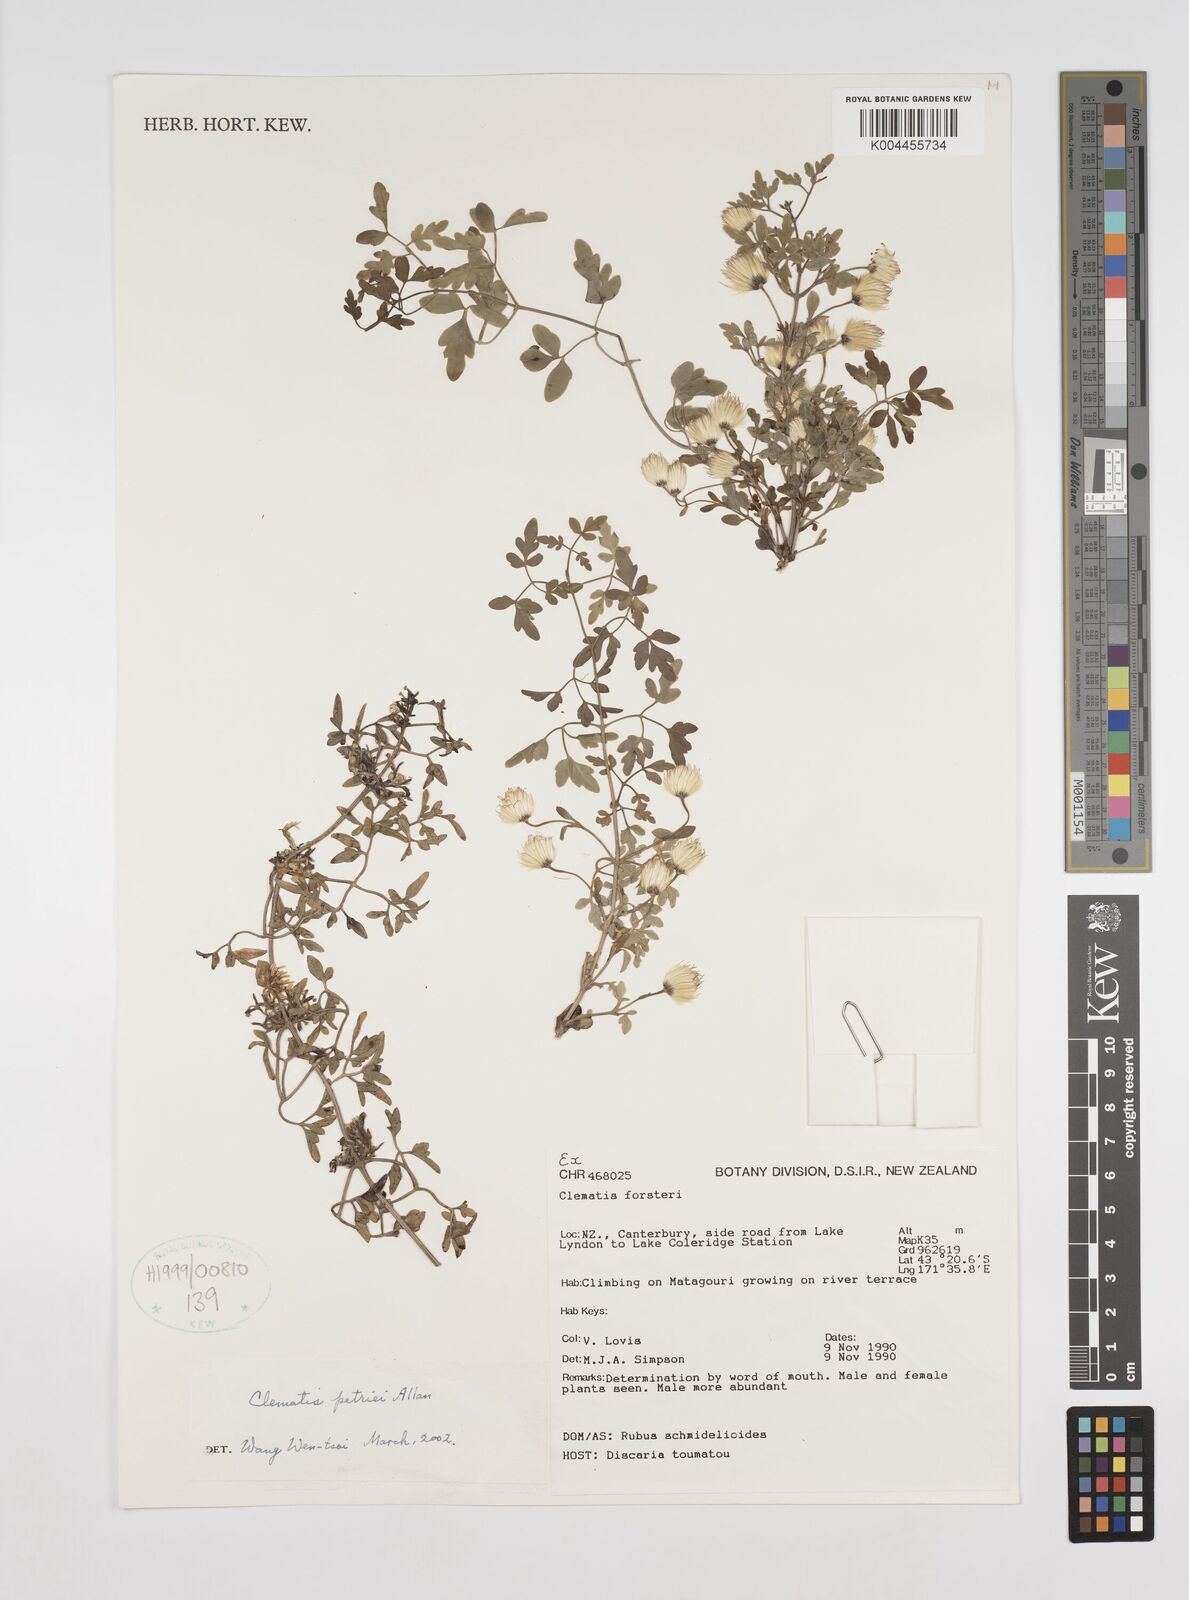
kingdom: Plantae
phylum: Tracheophyta
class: Magnoliopsida
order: Ranunculales
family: Ranunculaceae
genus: Clematis
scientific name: Clematis petriei
